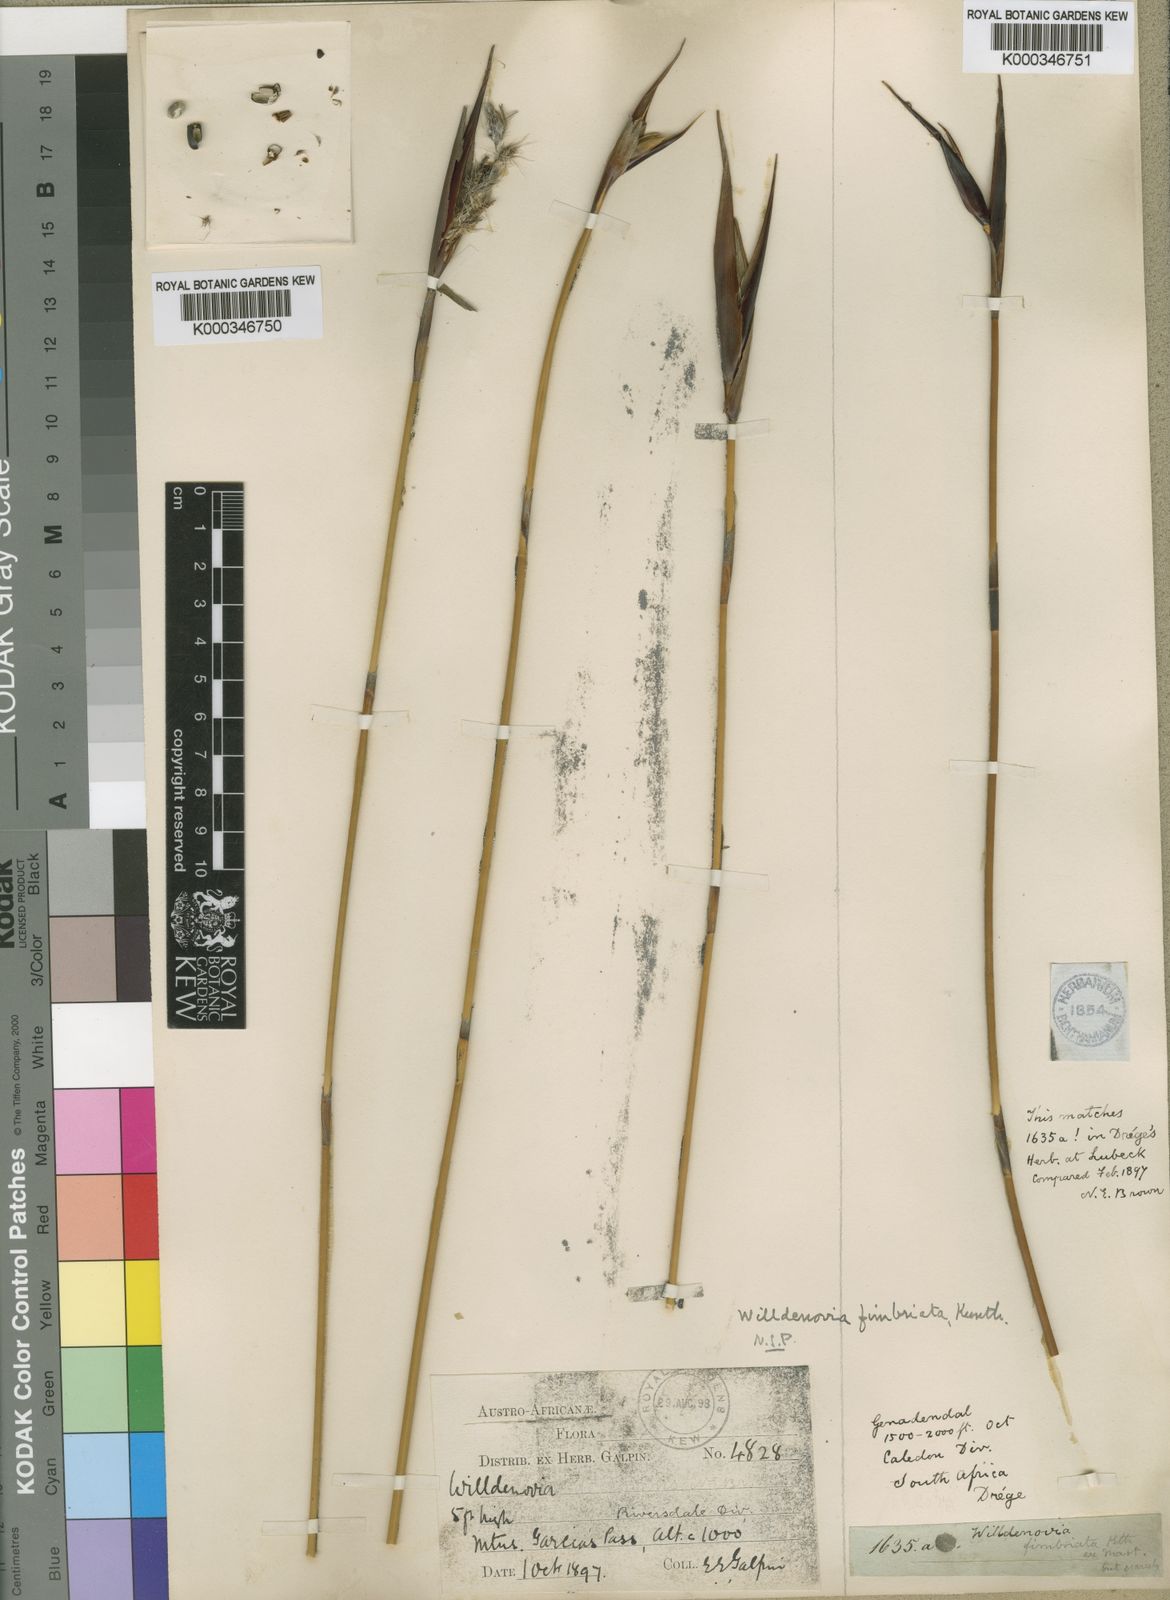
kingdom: Plantae
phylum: Tracheophyta
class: Liliopsida
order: Poales
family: Restionaceae
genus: Ceratocaryum
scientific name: Ceratocaryum decipiens
